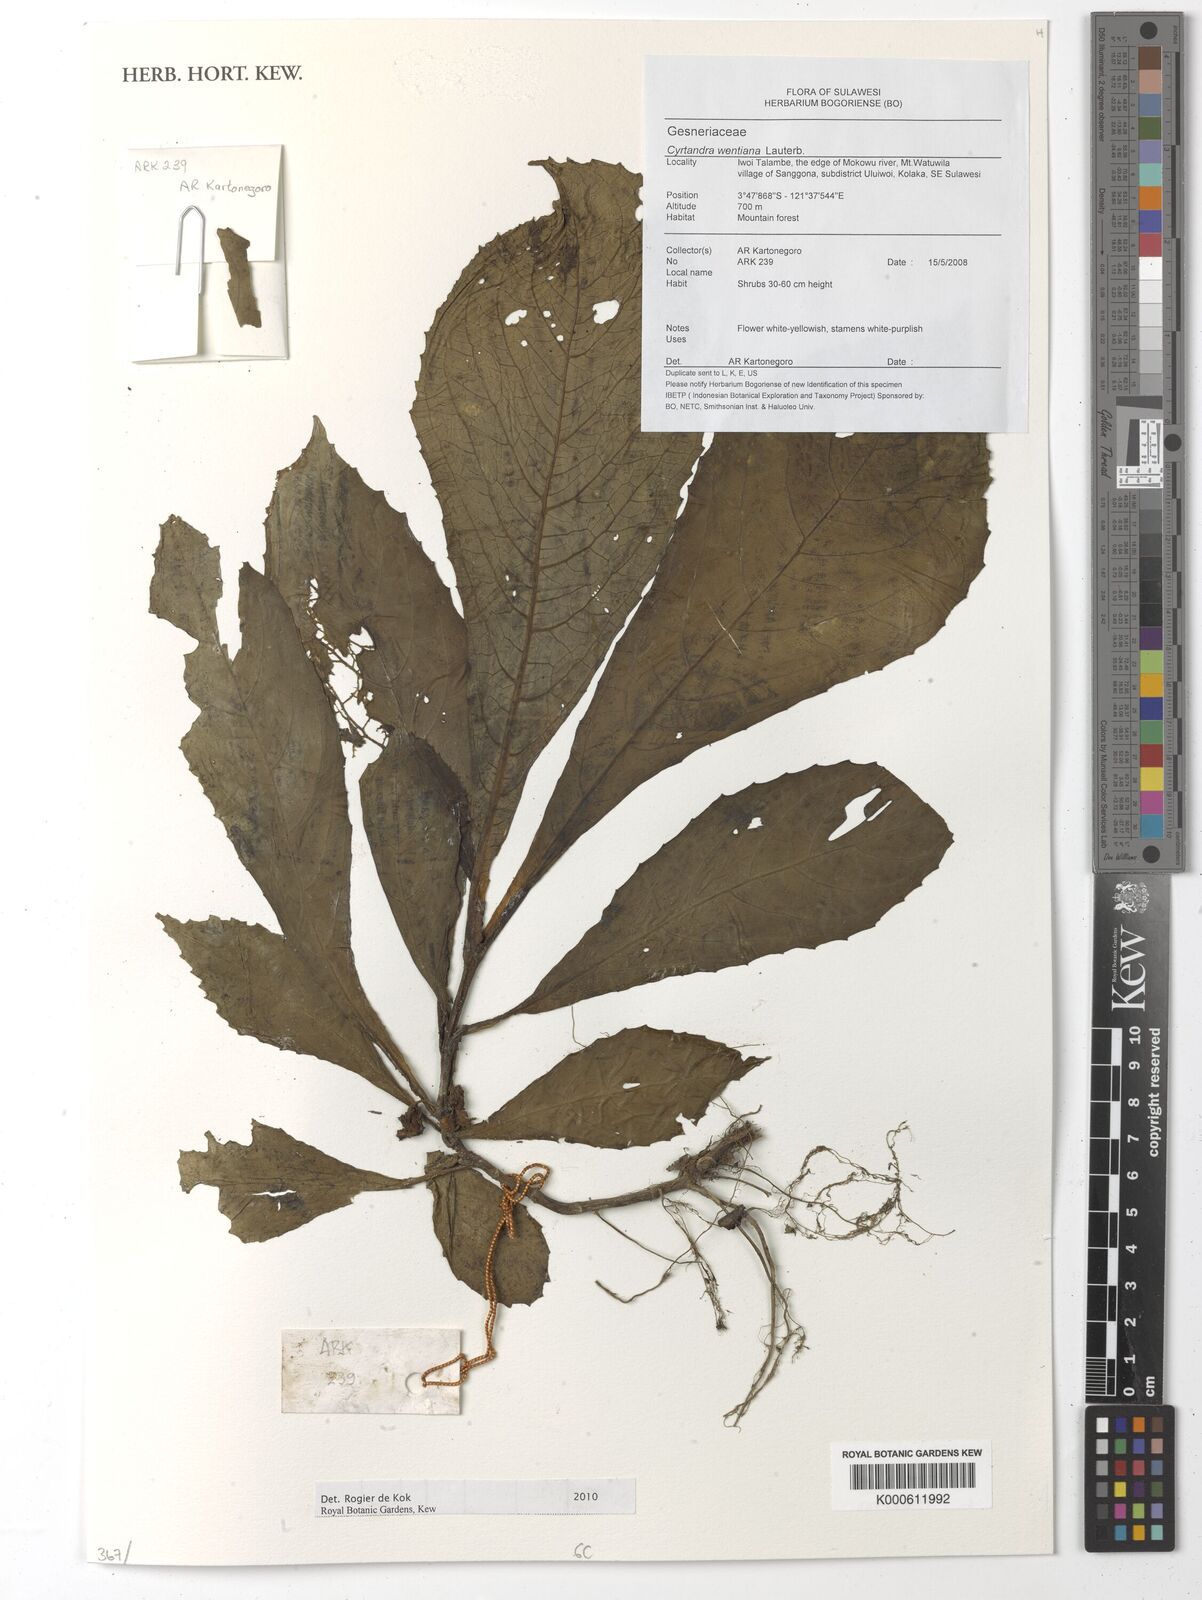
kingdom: Plantae
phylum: Tracheophyta
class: Magnoliopsida
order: Lamiales
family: Gesneriaceae
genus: Cyrtandra
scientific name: Cyrtandra wentiana
